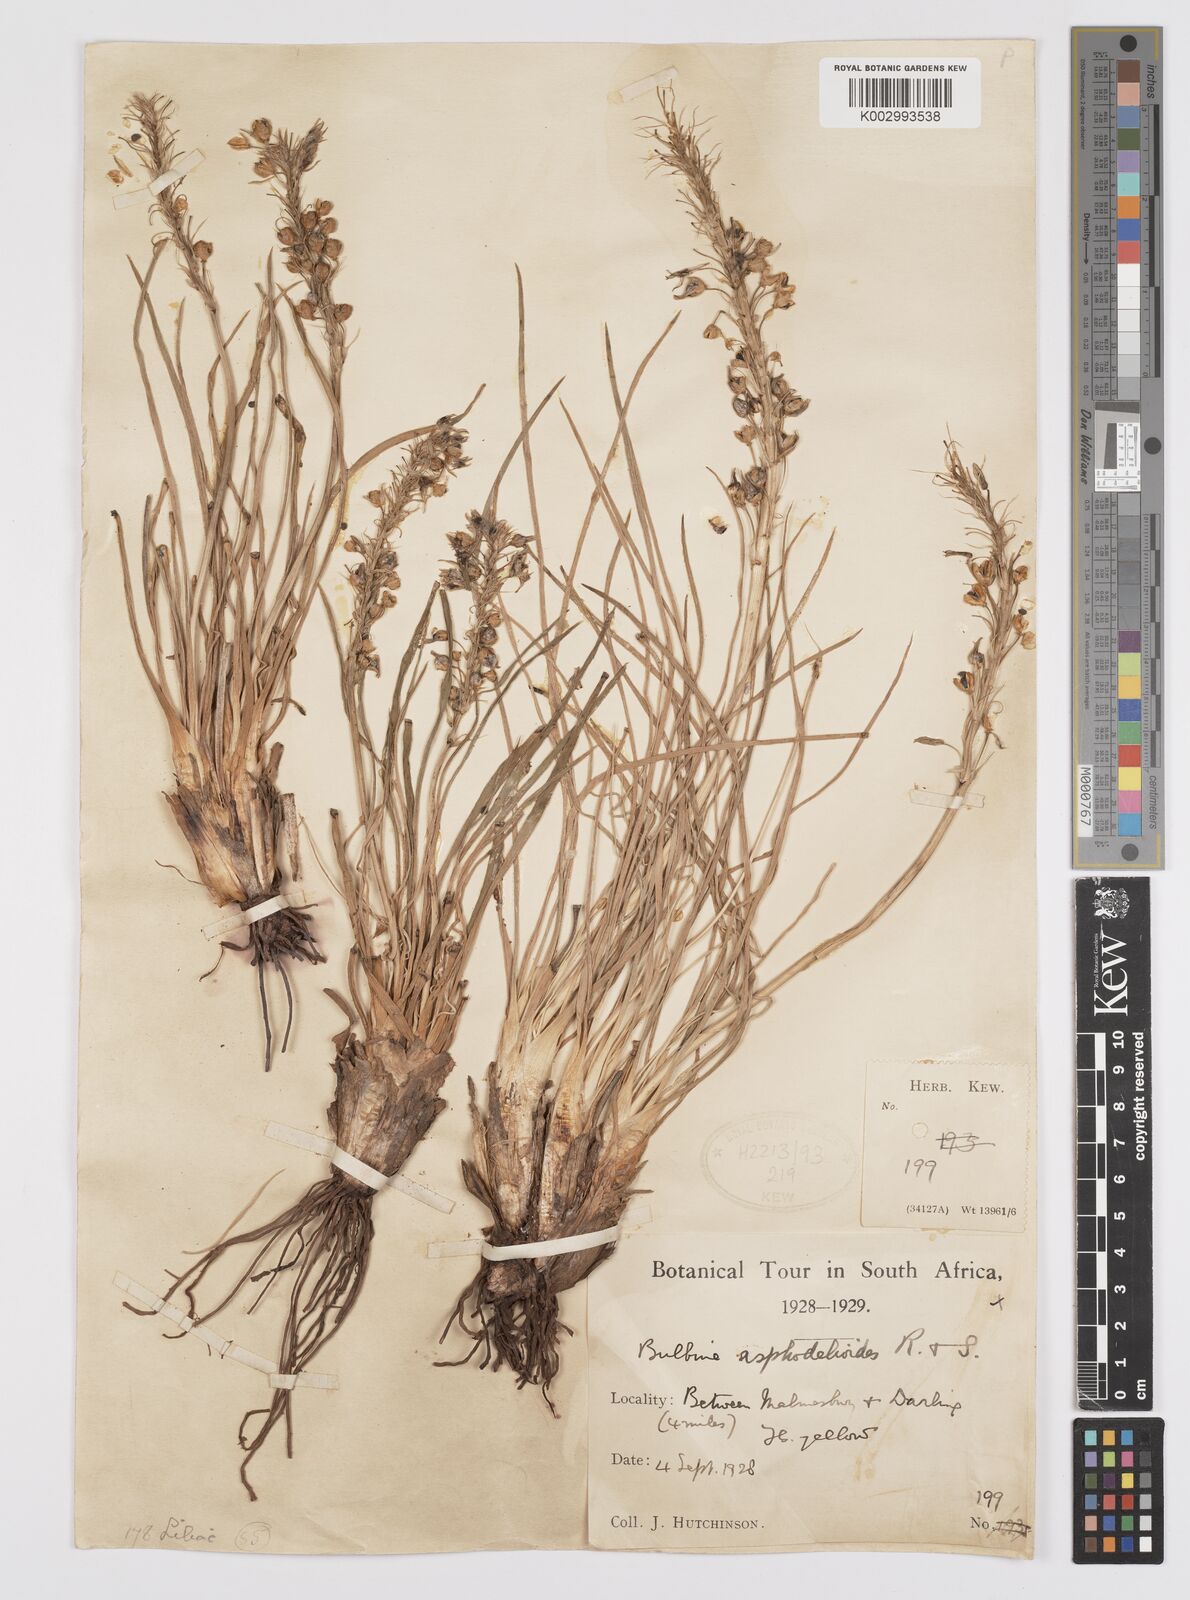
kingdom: Plantae
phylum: Tracheophyta
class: Liliopsida
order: Asparagales
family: Asphodelaceae
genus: Bulbine
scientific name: Bulbine asphodeloides
